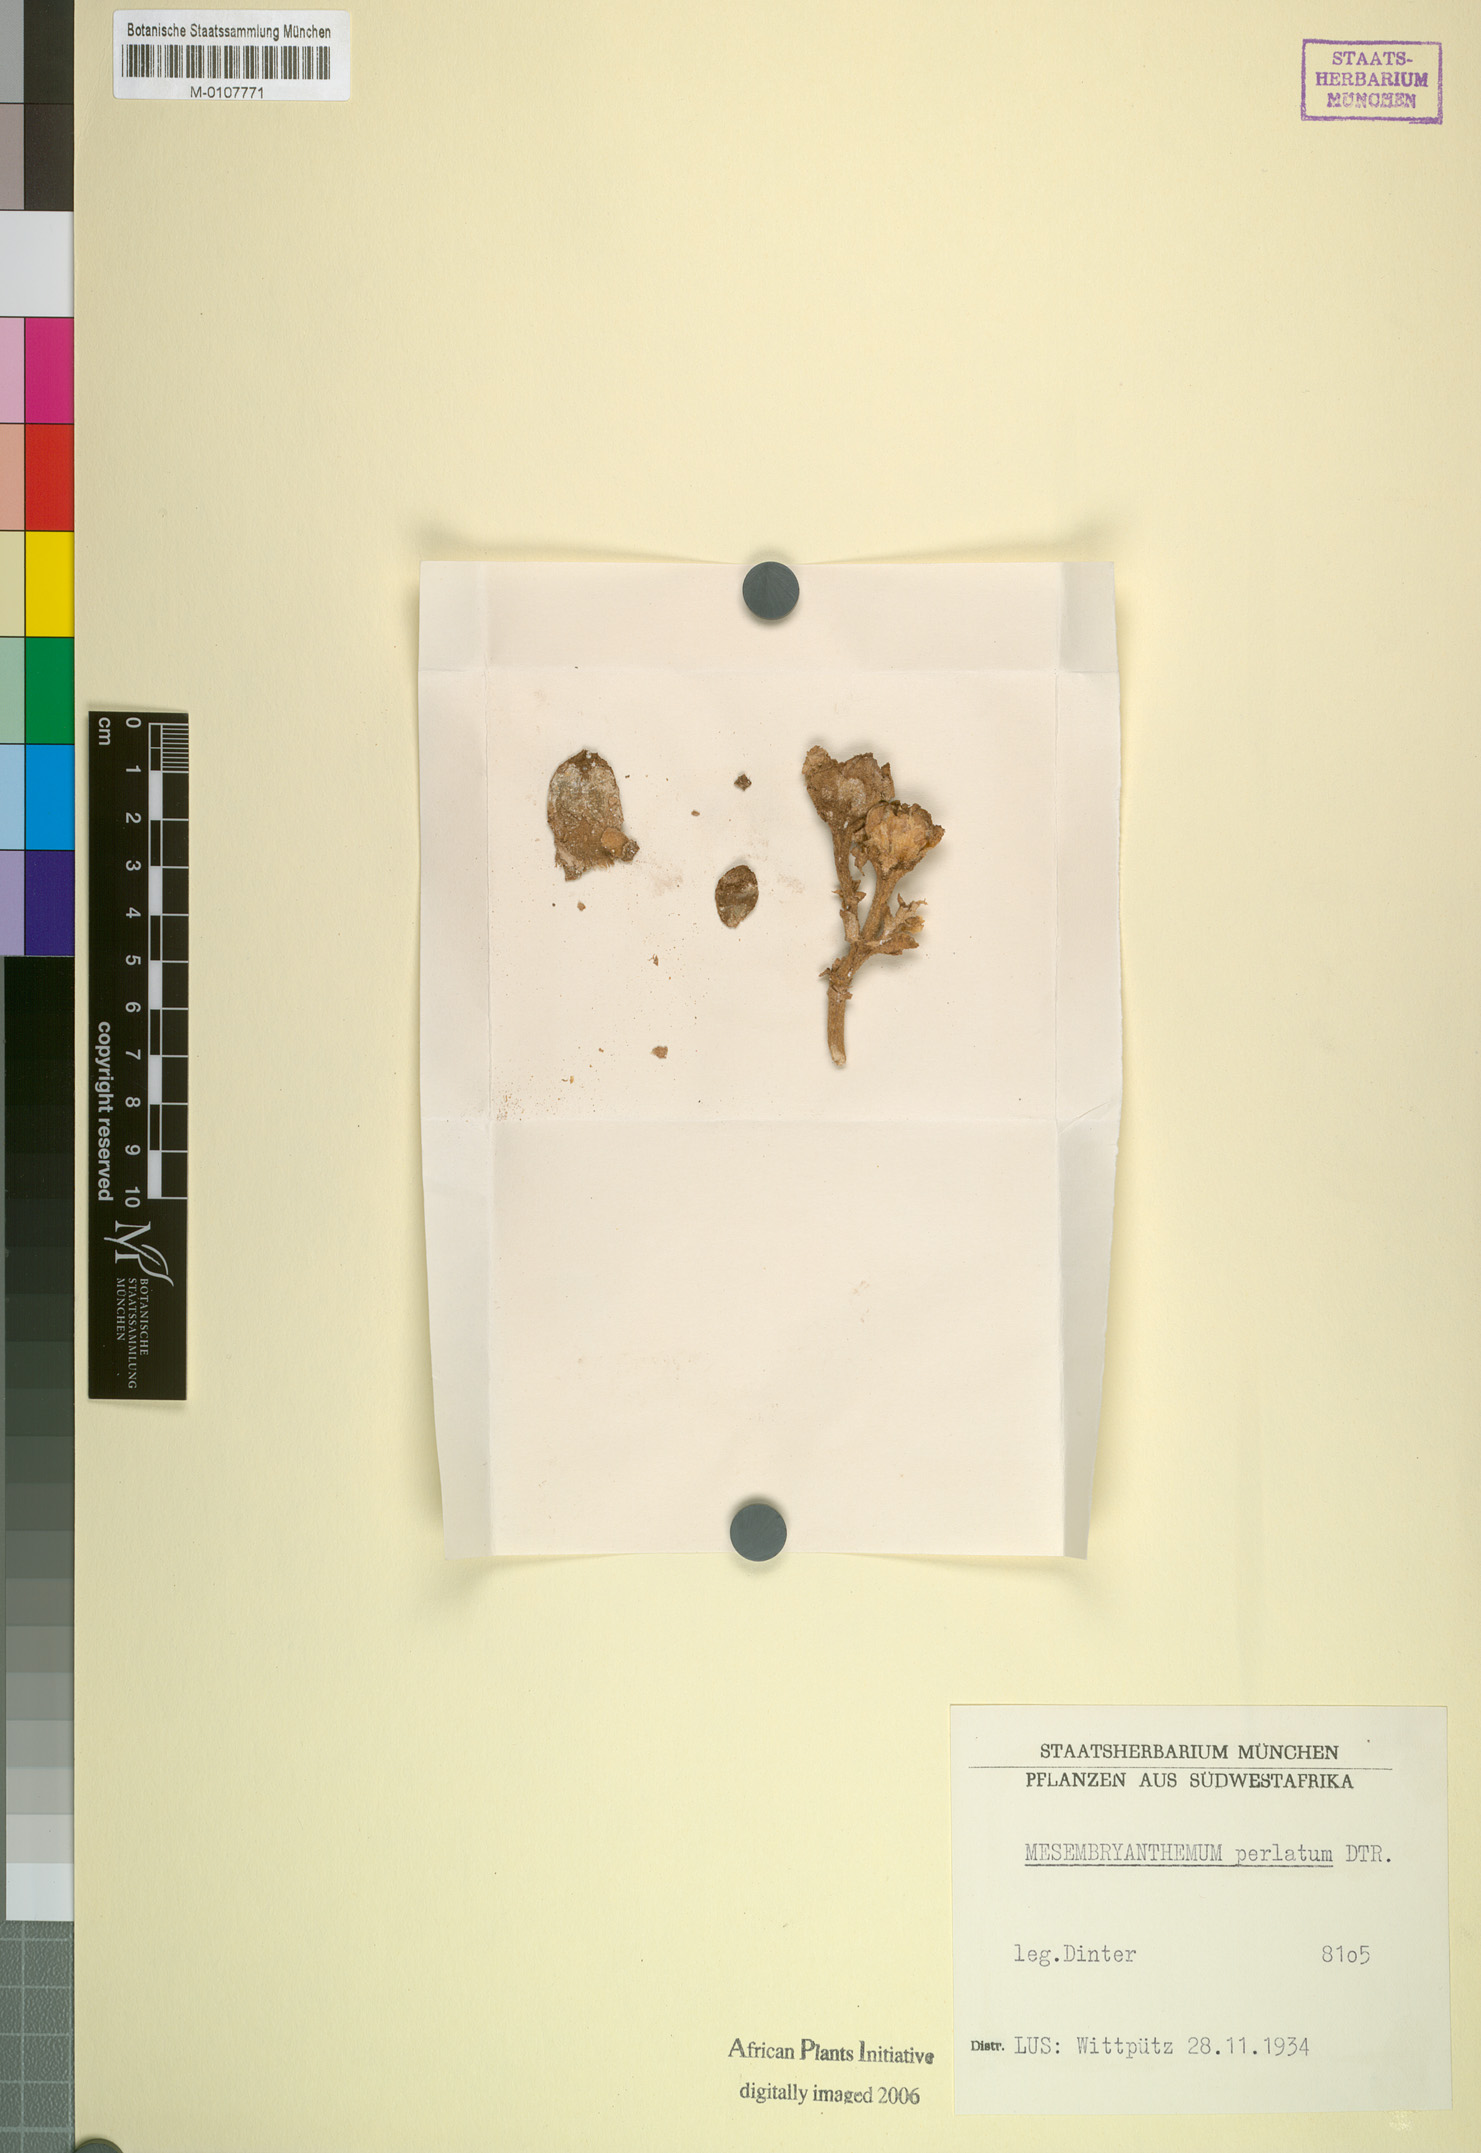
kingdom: Plantae
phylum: Tracheophyta
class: Magnoliopsida
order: Caryophyllales
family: Aizoaceae
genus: Mesembryanthemum
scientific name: Mesembryanthemum guerichianum
